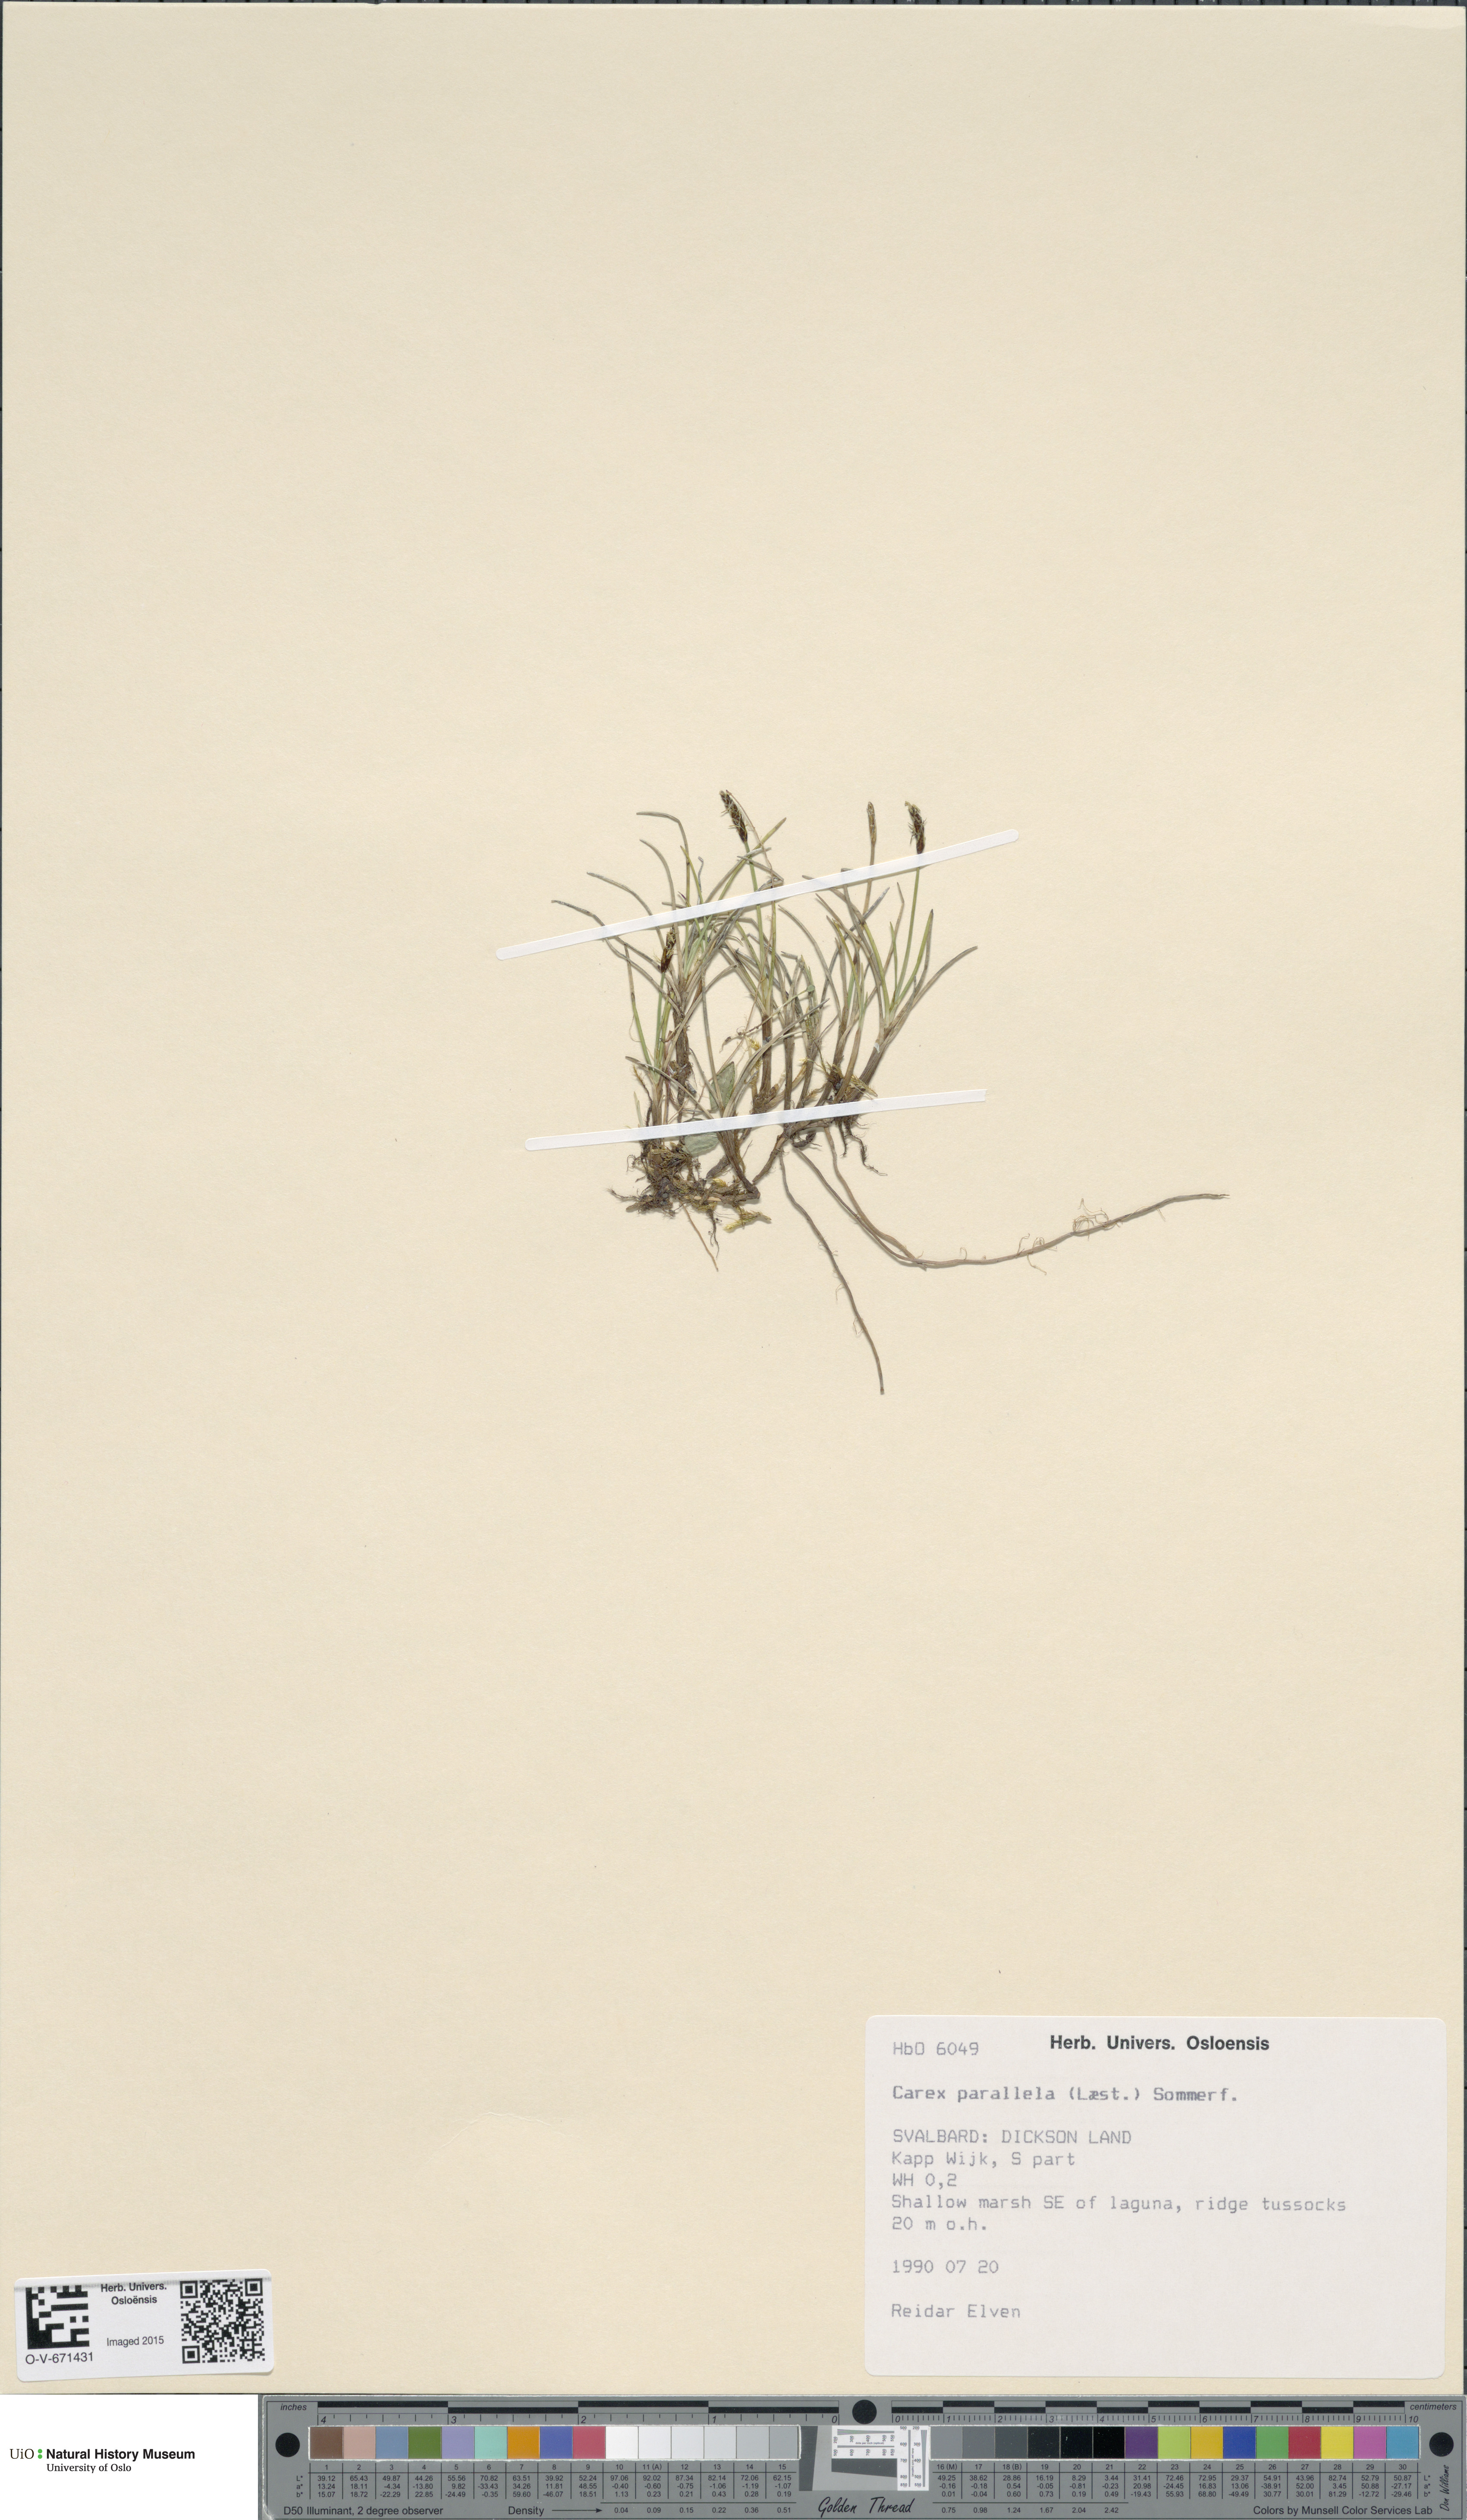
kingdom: Plantae
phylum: Tracheophyta
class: Liliopsida
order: Poales
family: Cyperaceae
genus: Carex
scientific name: Carex parallela
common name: Parallel sedge
